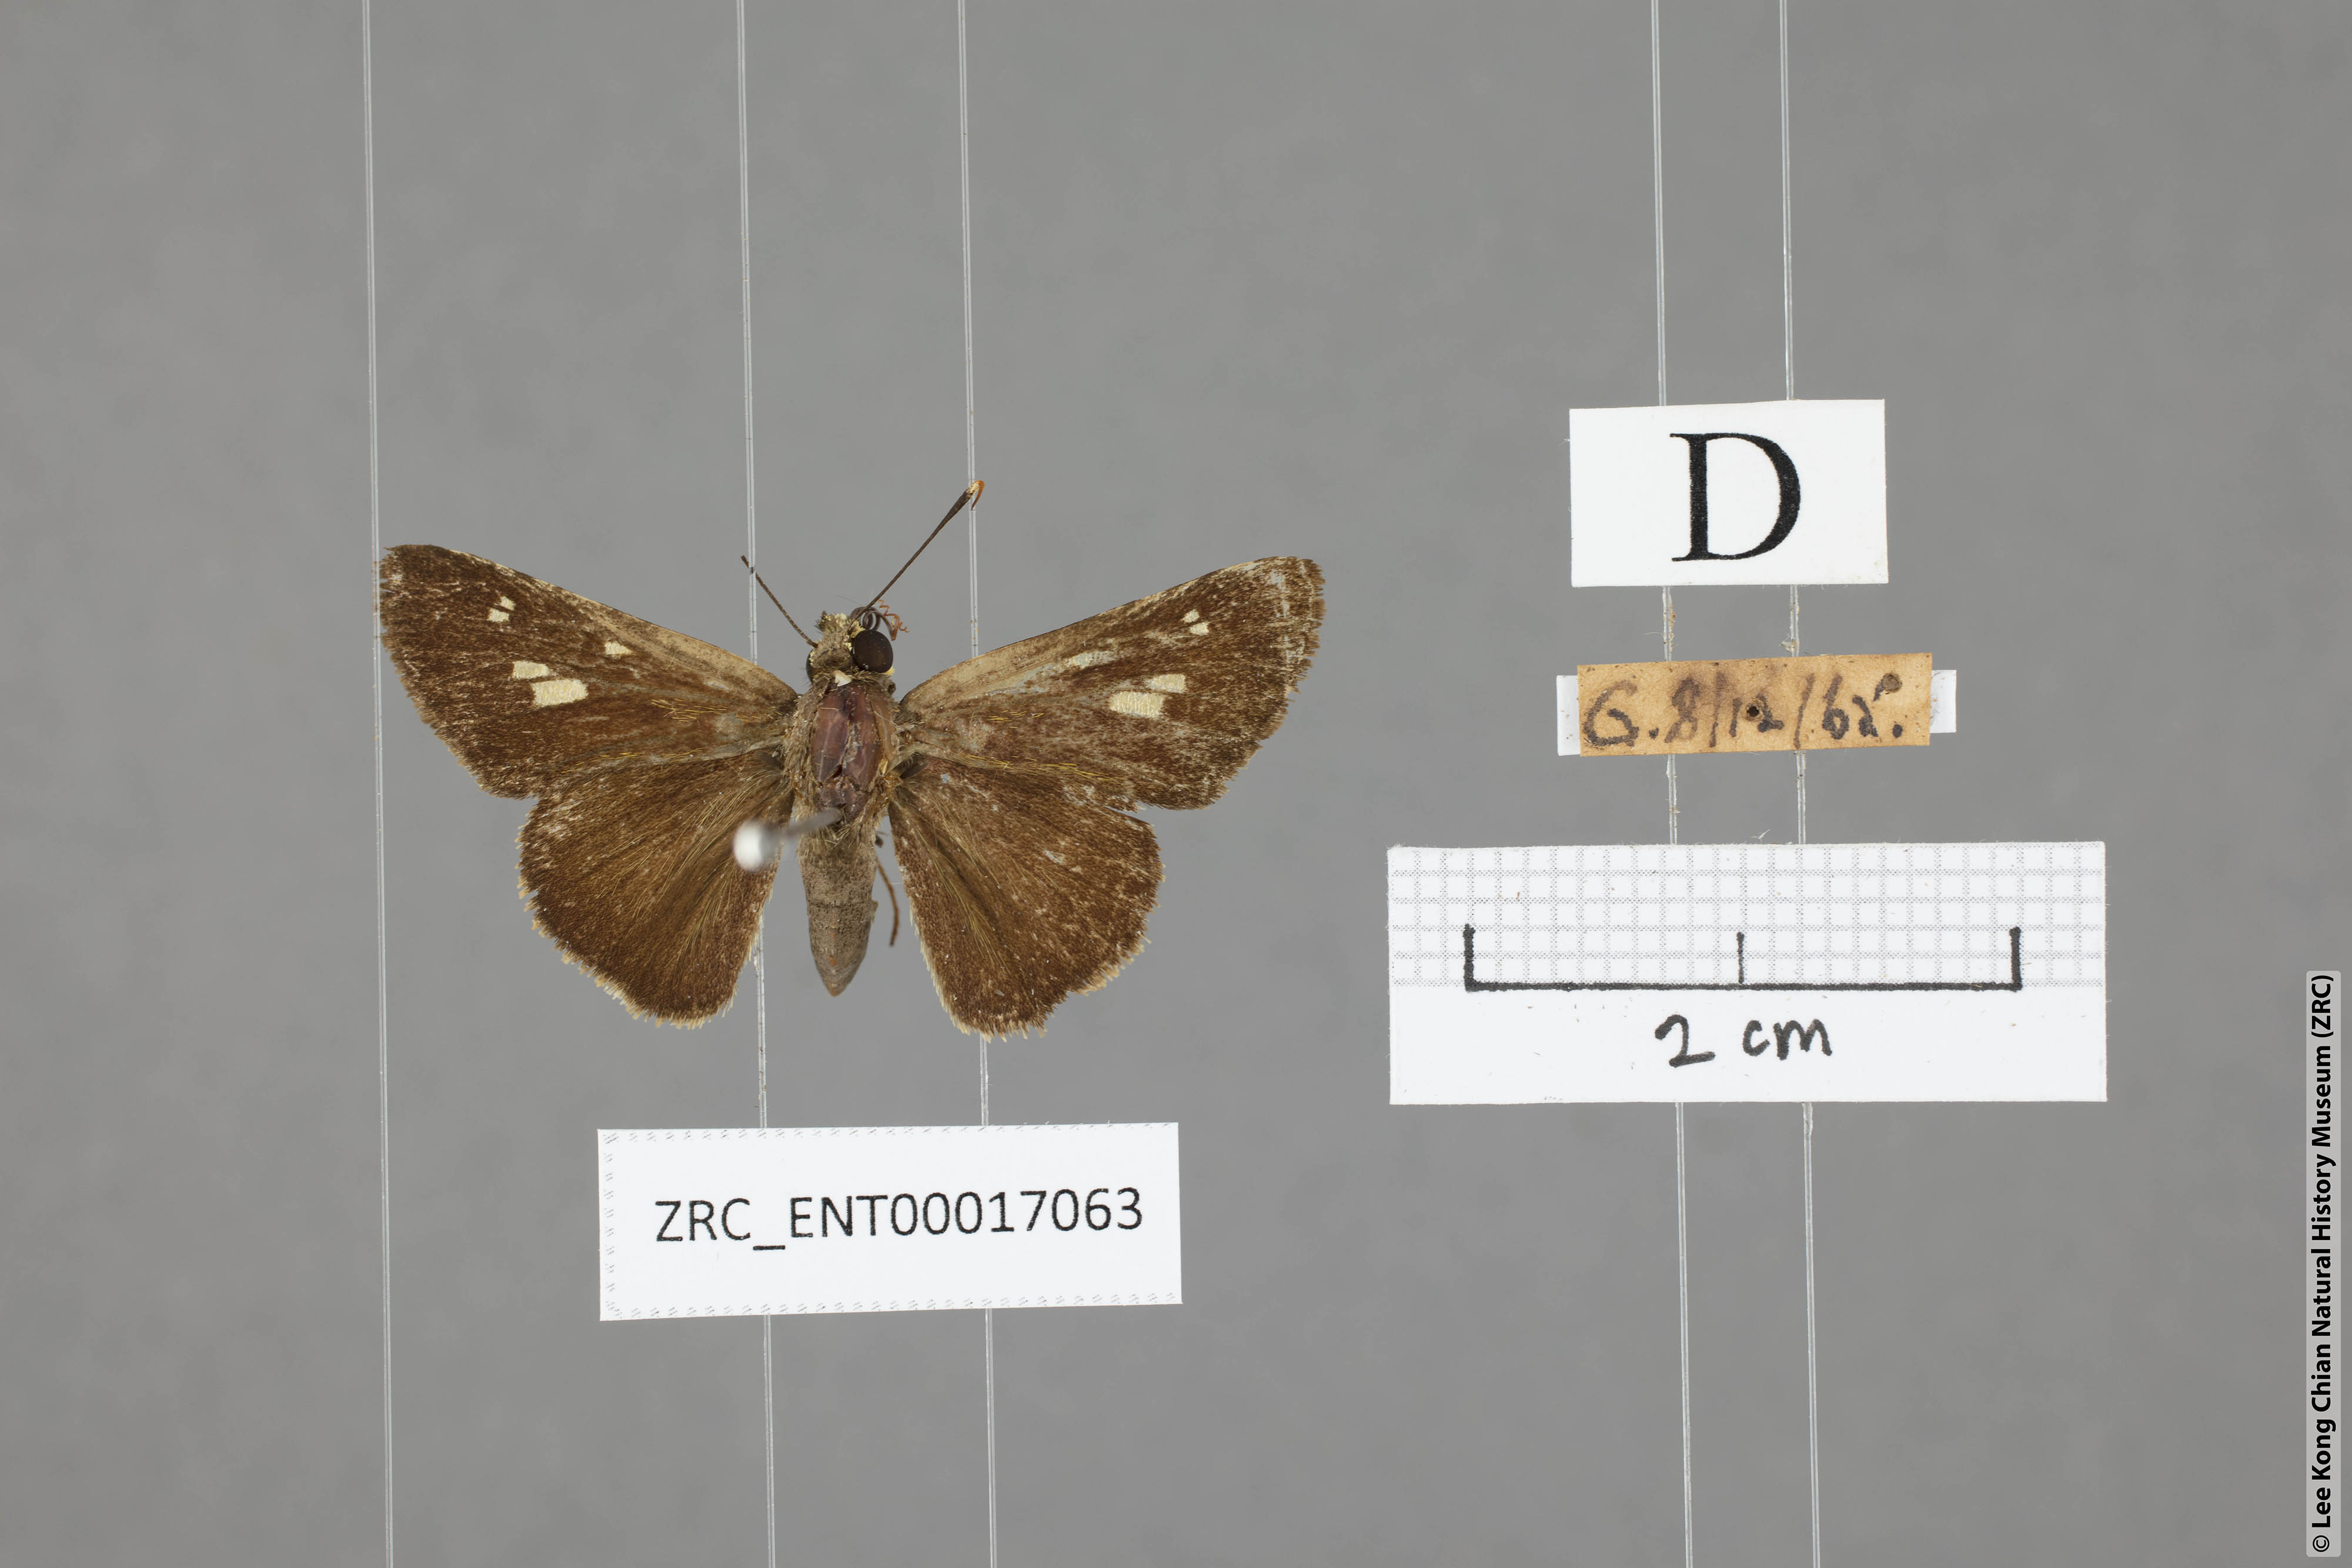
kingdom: Animalia
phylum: Arthropoda
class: Insecta
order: Lepidoptera
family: Hesperiidae
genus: Halpe
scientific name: Halpe sikkima
